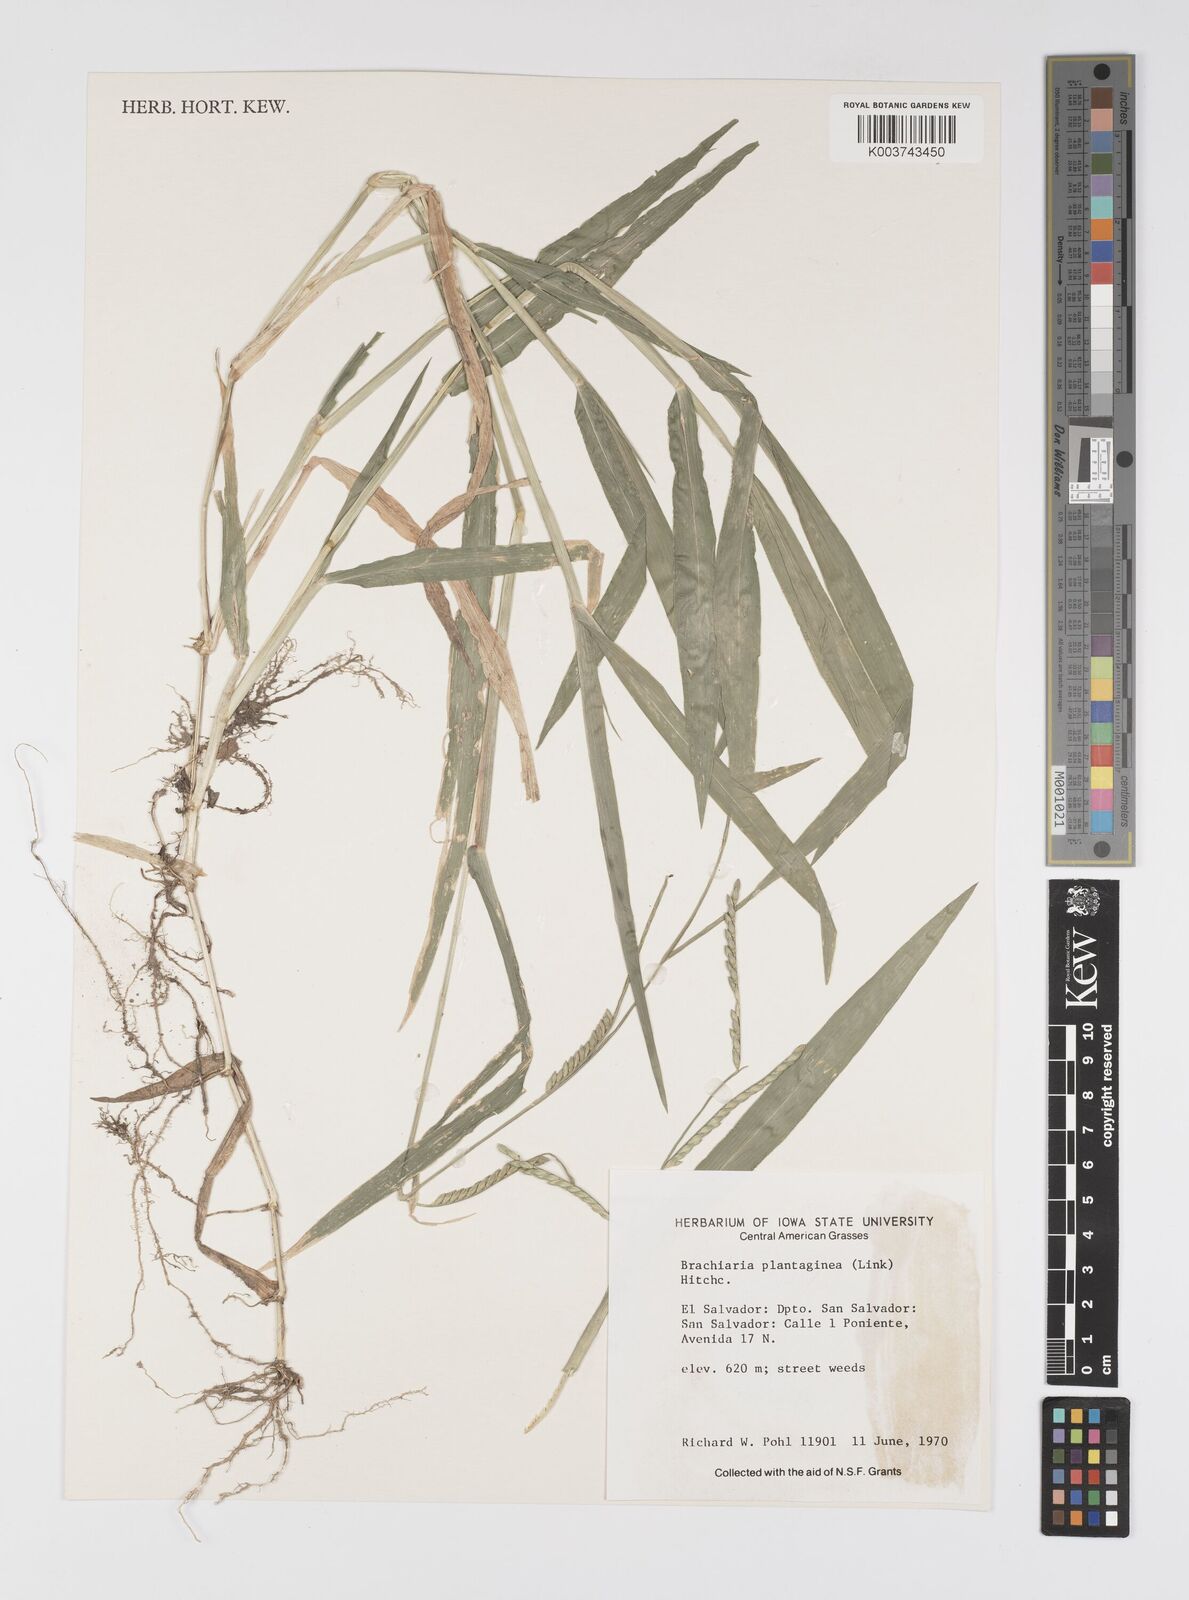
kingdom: Plantae
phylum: Tracheophyta
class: Liliopsida
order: Poales
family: Poaceae
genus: Urochloa
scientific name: Urochloa plantaginea
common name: Plantain signalgrass
